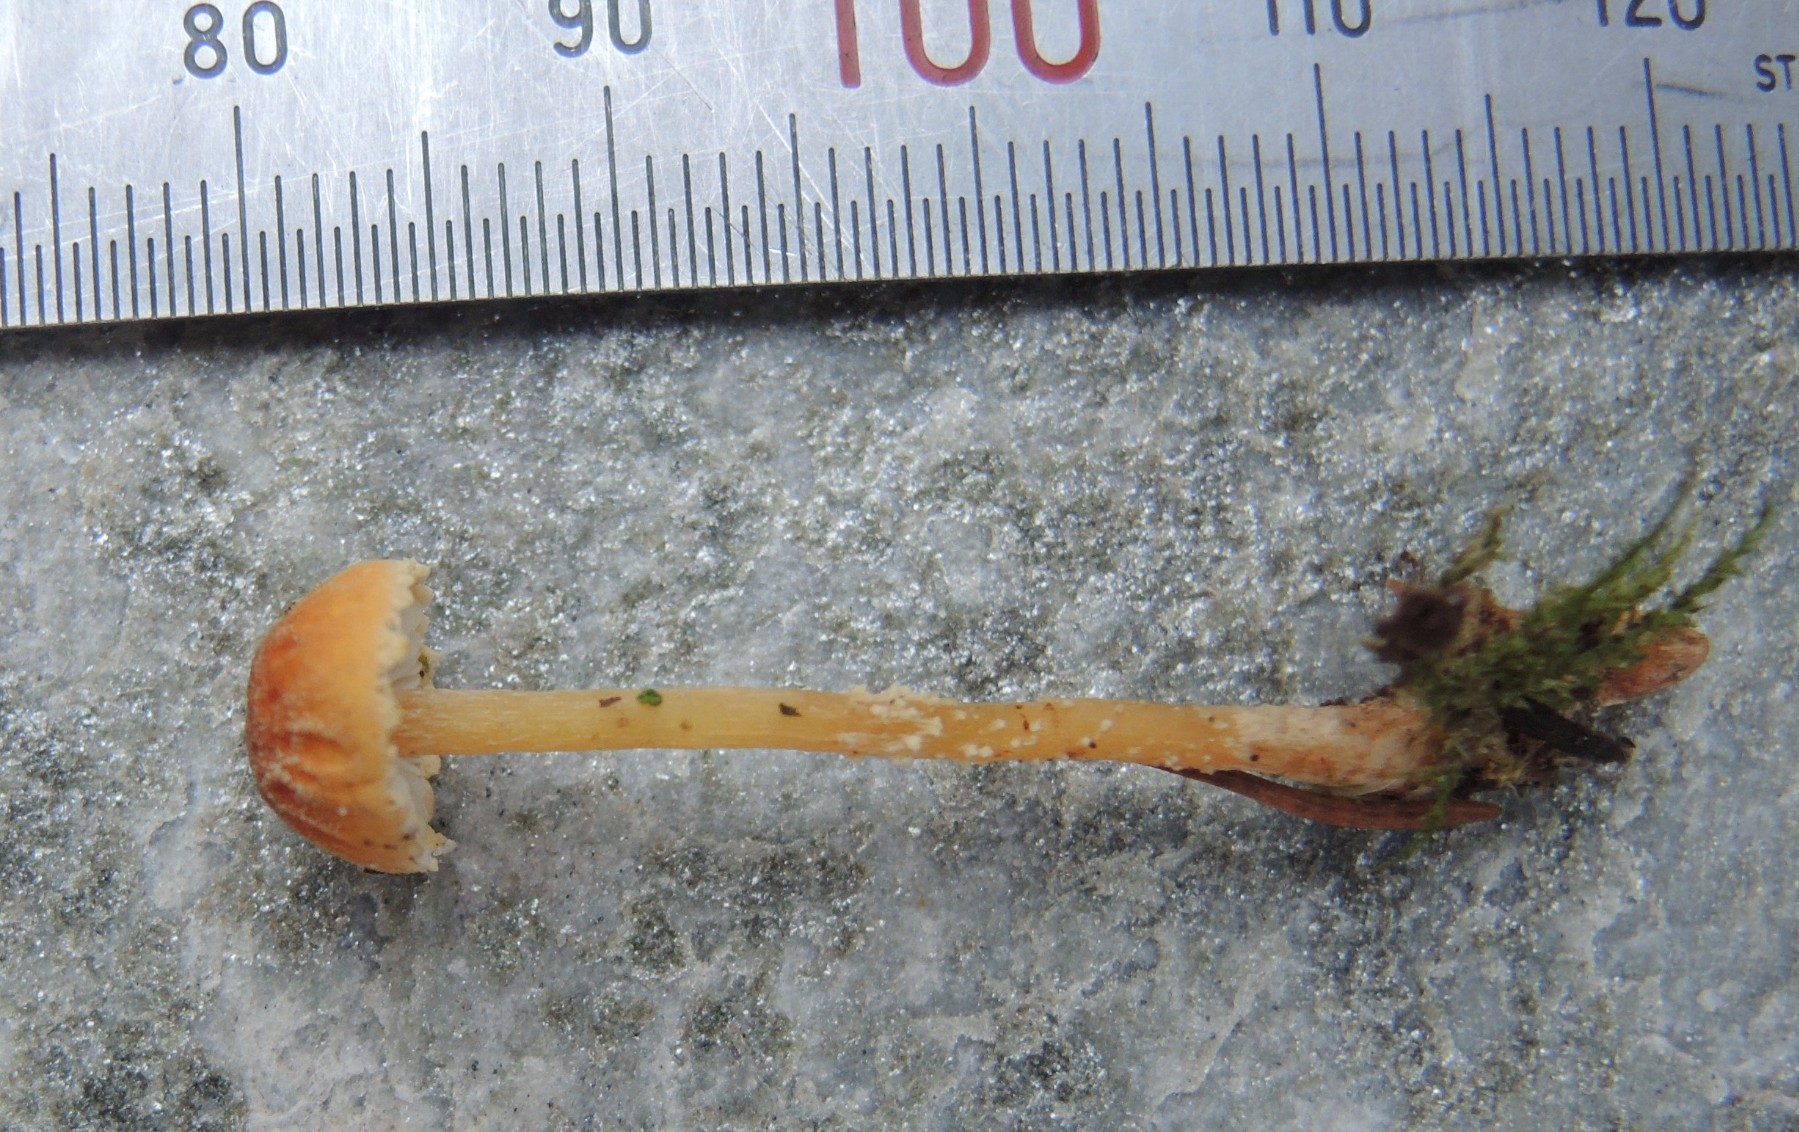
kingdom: Fungi
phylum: Basidiomycota
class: Agaricomycetes
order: Agaricales
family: Tricholomataceae
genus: Cystoderma
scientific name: Cystoderma jasonis
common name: gulkødet grynhat
